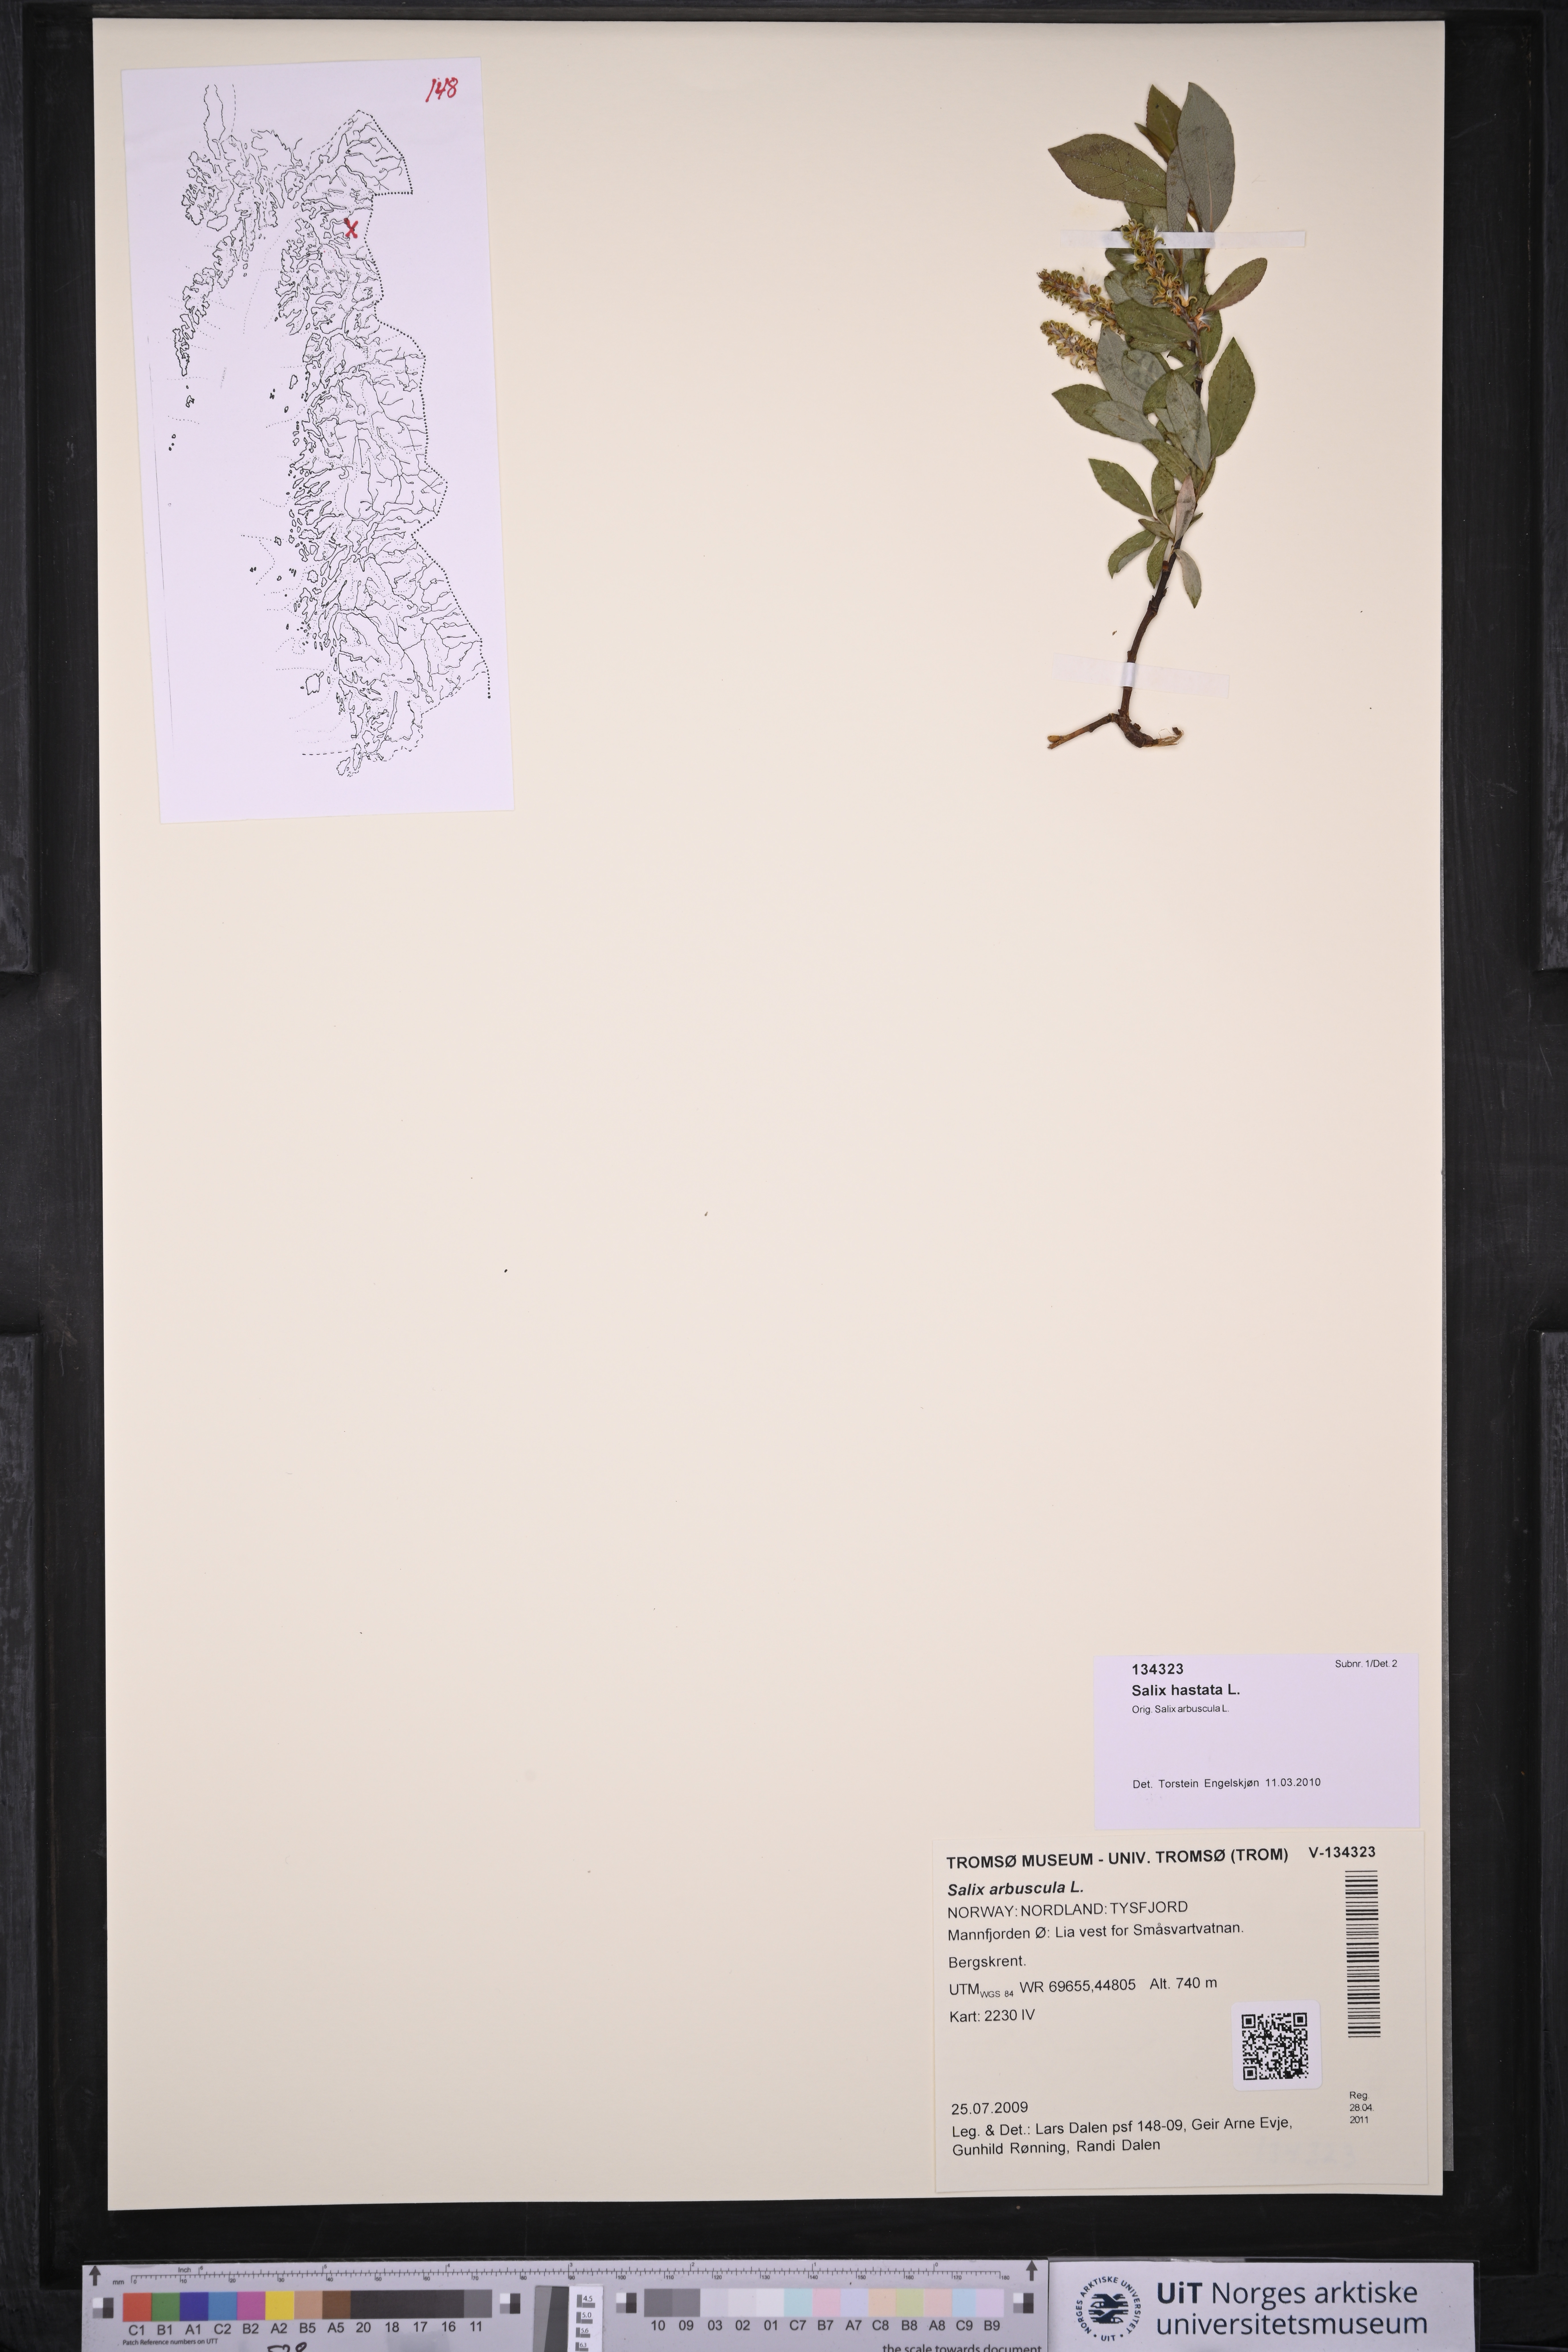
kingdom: Plantae
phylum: Tracheophyta
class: Magnoliopsida
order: Malpighiales
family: Salicaceae
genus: Salix
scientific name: Salix hastata
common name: Halberd willow
